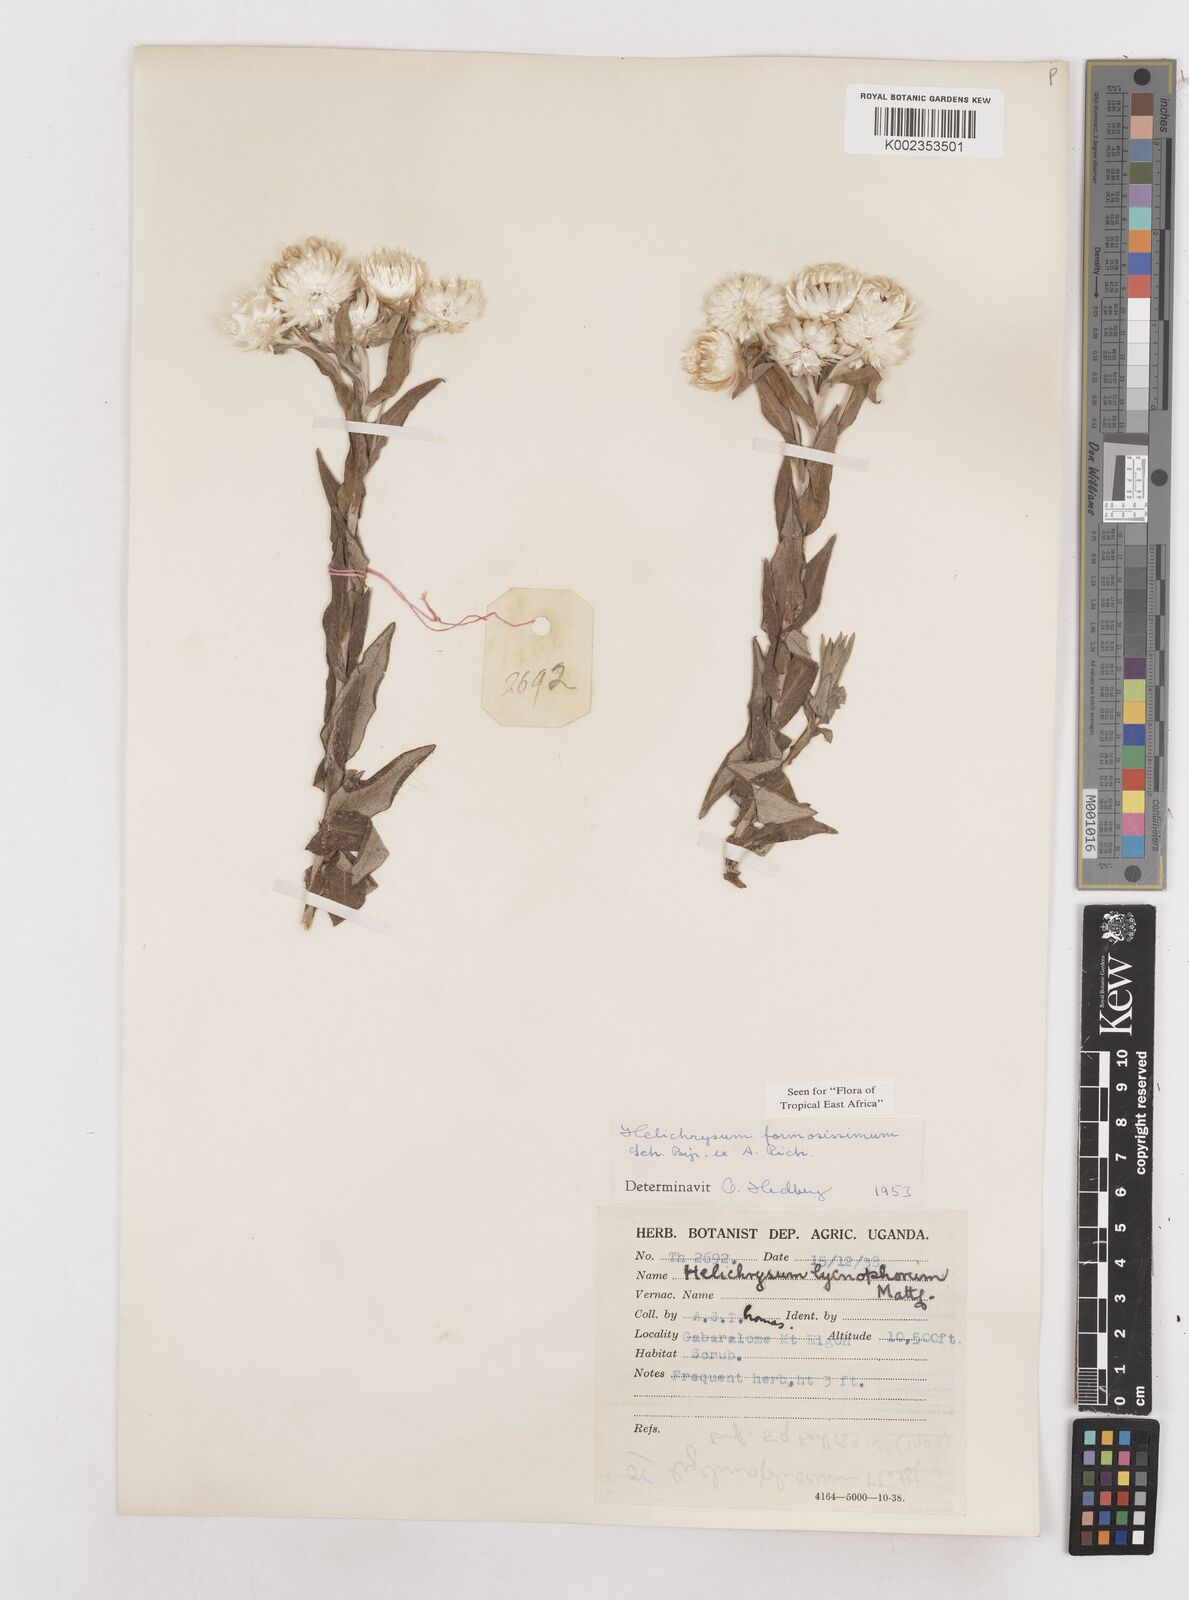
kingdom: Plantae
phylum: Tracheophyta
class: Magnoliopsida
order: Asterales
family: Asteraceae
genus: Helichrysum
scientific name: Helichrysum formosissimum
